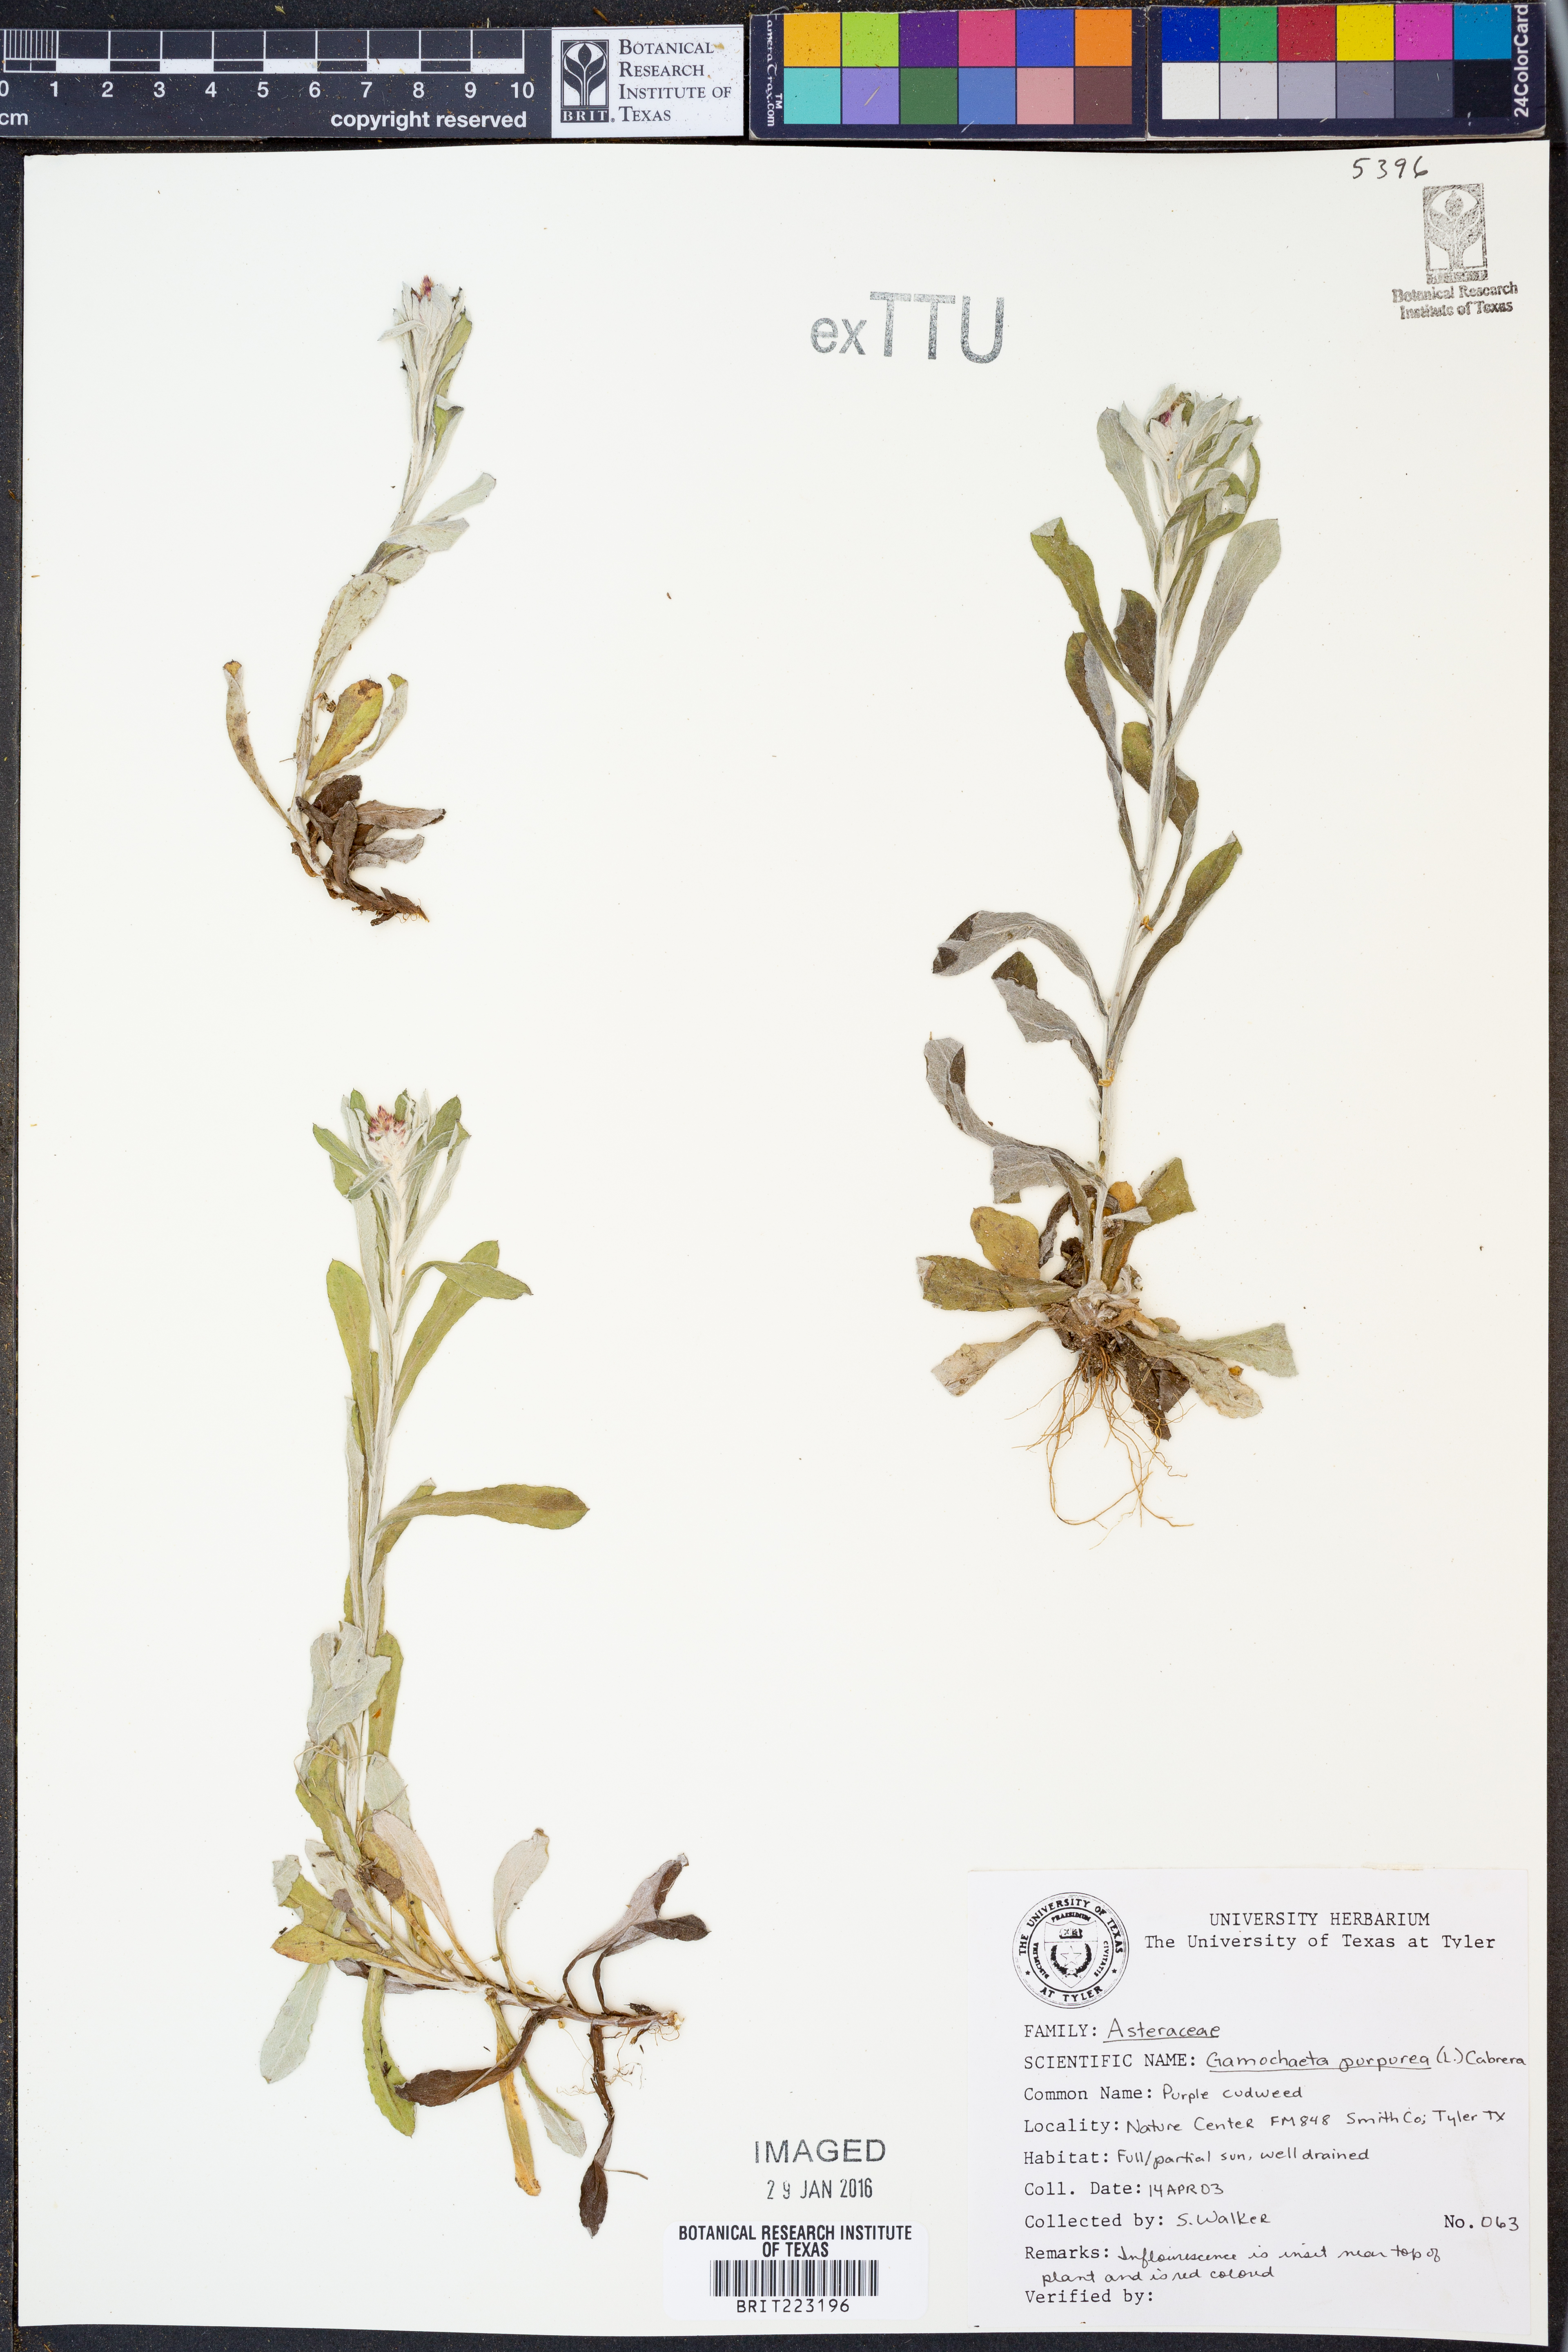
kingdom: Plantae
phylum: Tracheophyta
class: Magnoliopsida
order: Asterales
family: Asteraceae
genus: Gamochaeta
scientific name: Gamochaeta purpurea
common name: Purple cudweed
